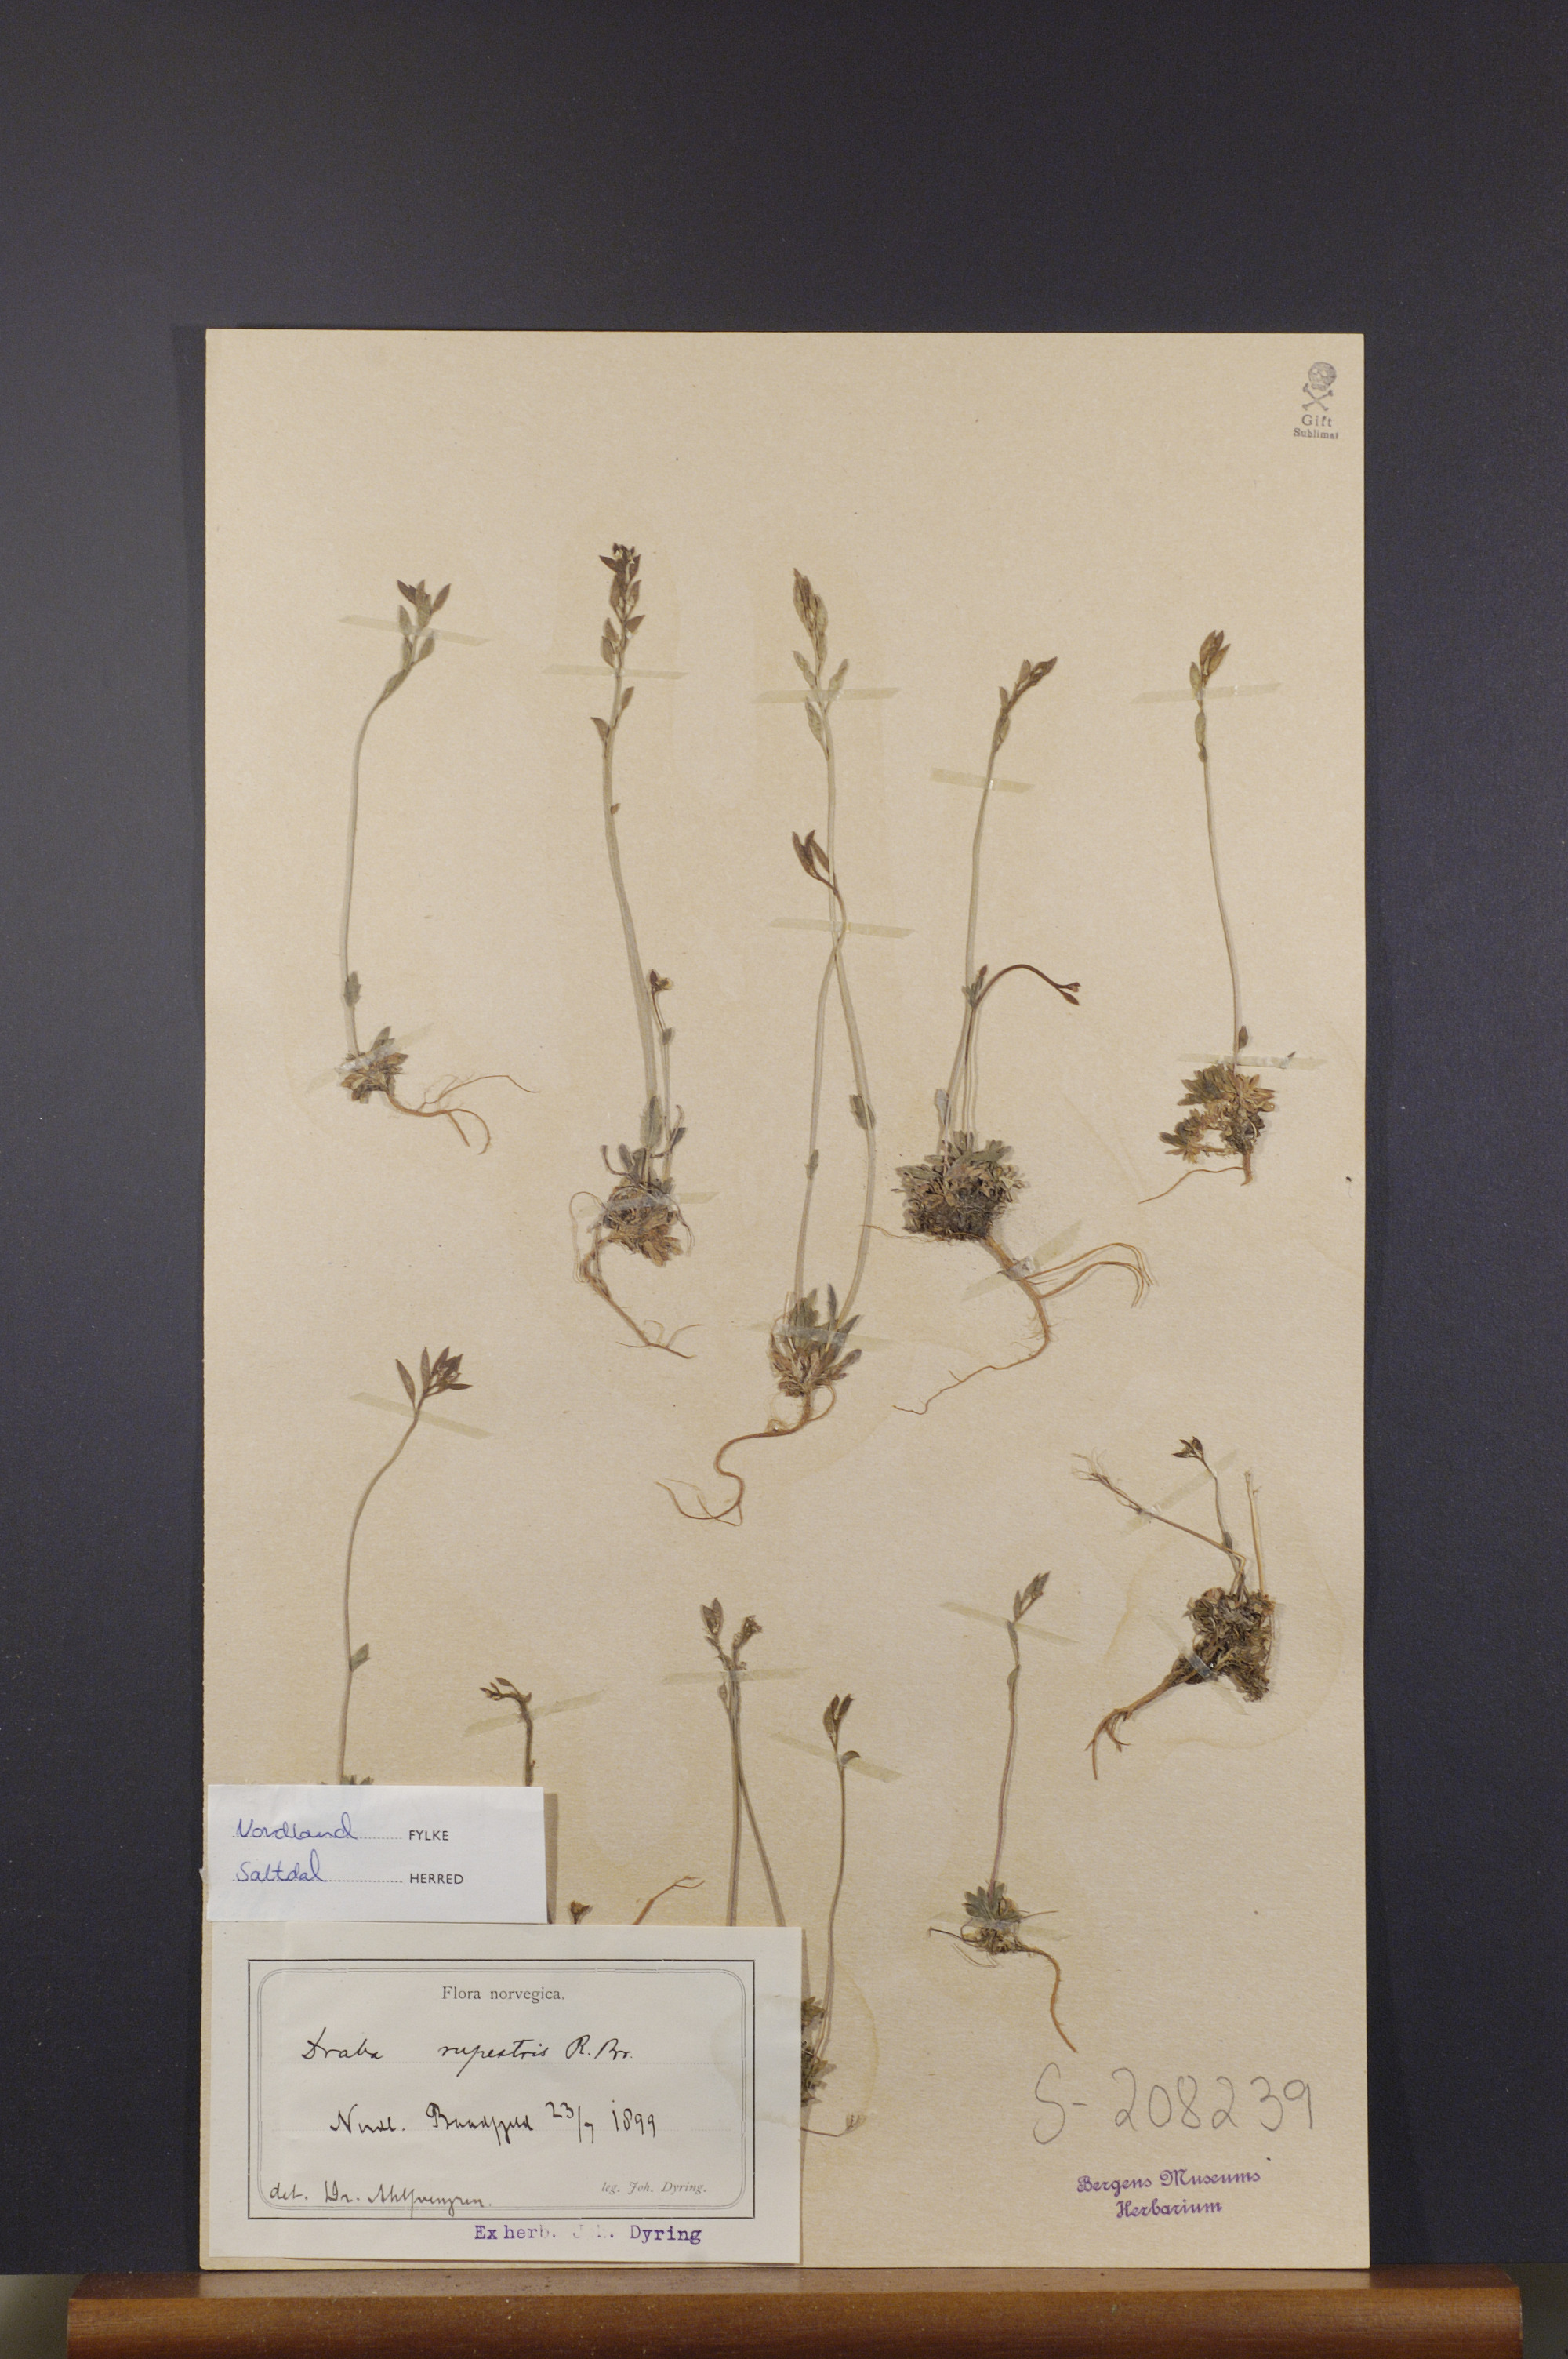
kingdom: Plantae
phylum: Tracheophyta
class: Magnoliopsida
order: Brassicales
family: Brassicaceae
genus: Draba
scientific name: Draba norvegica
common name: Rock whitlowgrass
